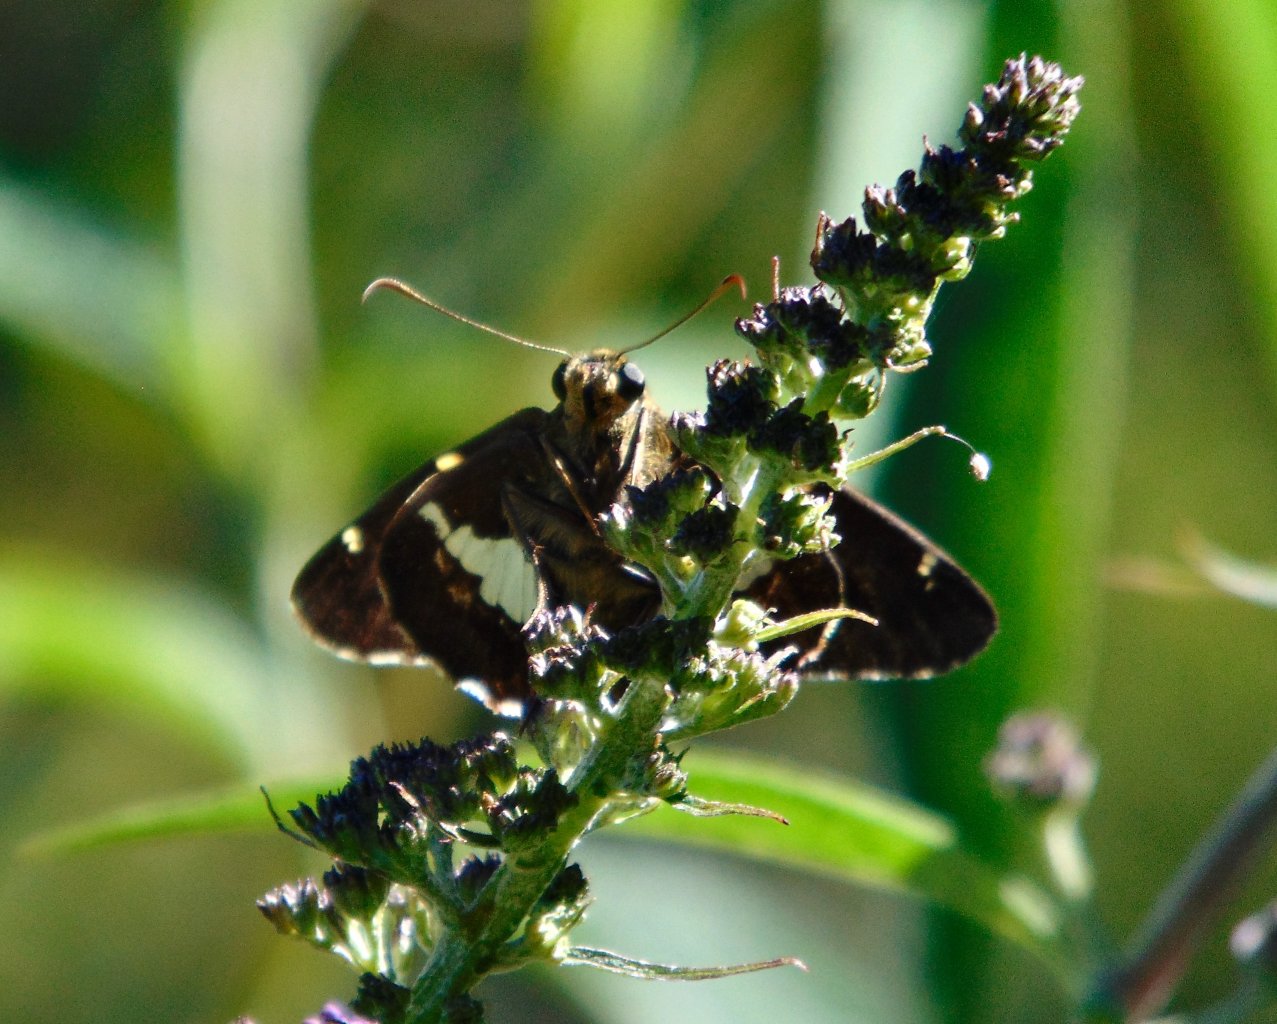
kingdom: Animalia
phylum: Arthropoda
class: Insecta
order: Lepidoptera
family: Hesperiidae
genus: Epargyreus
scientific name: Epargyreus clarus
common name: Silver-spotted Skipper
